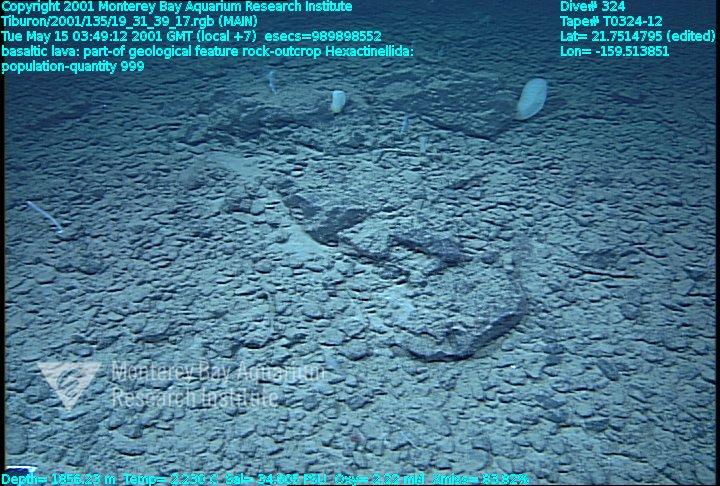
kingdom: Animalia
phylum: Porifera
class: Hexactinellida
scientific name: Hexactinellida
